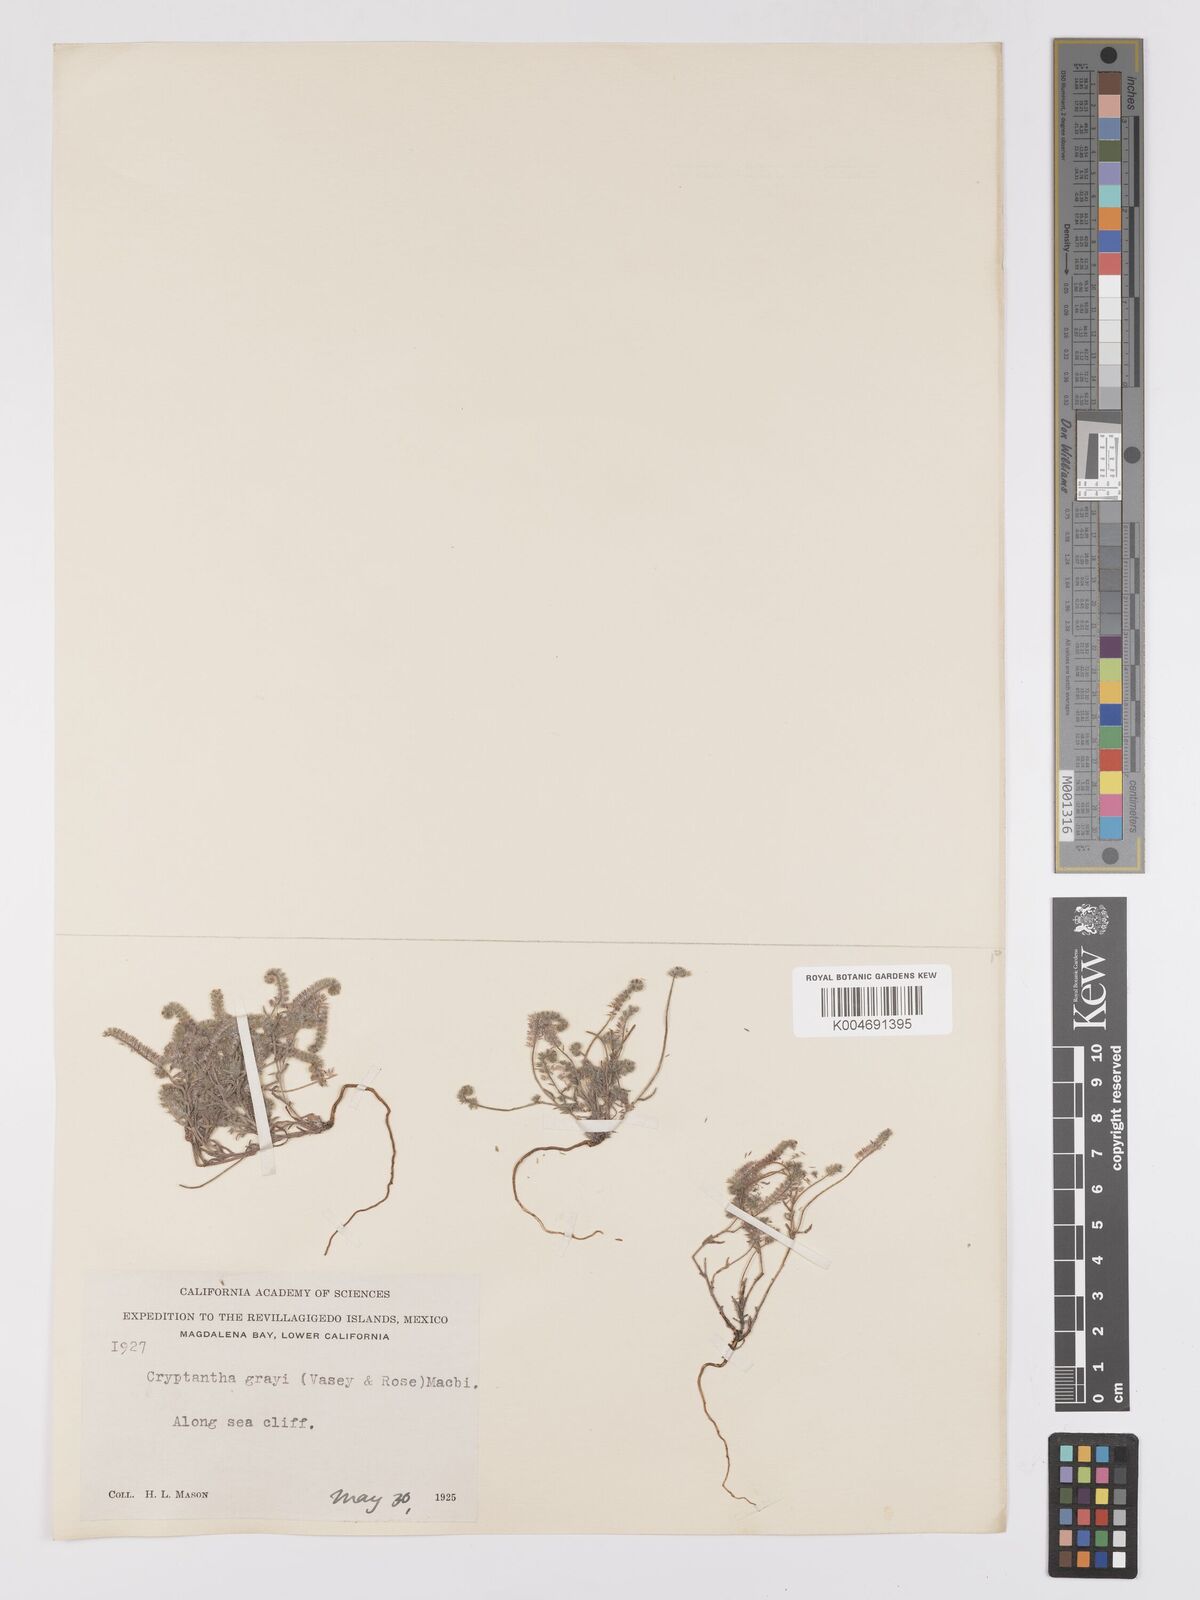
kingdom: Plantae
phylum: Tracheophyta
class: Magnoliopsida
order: Boraginales
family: Boraginaceae
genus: Johnstonella
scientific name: Johnstonella grayi
